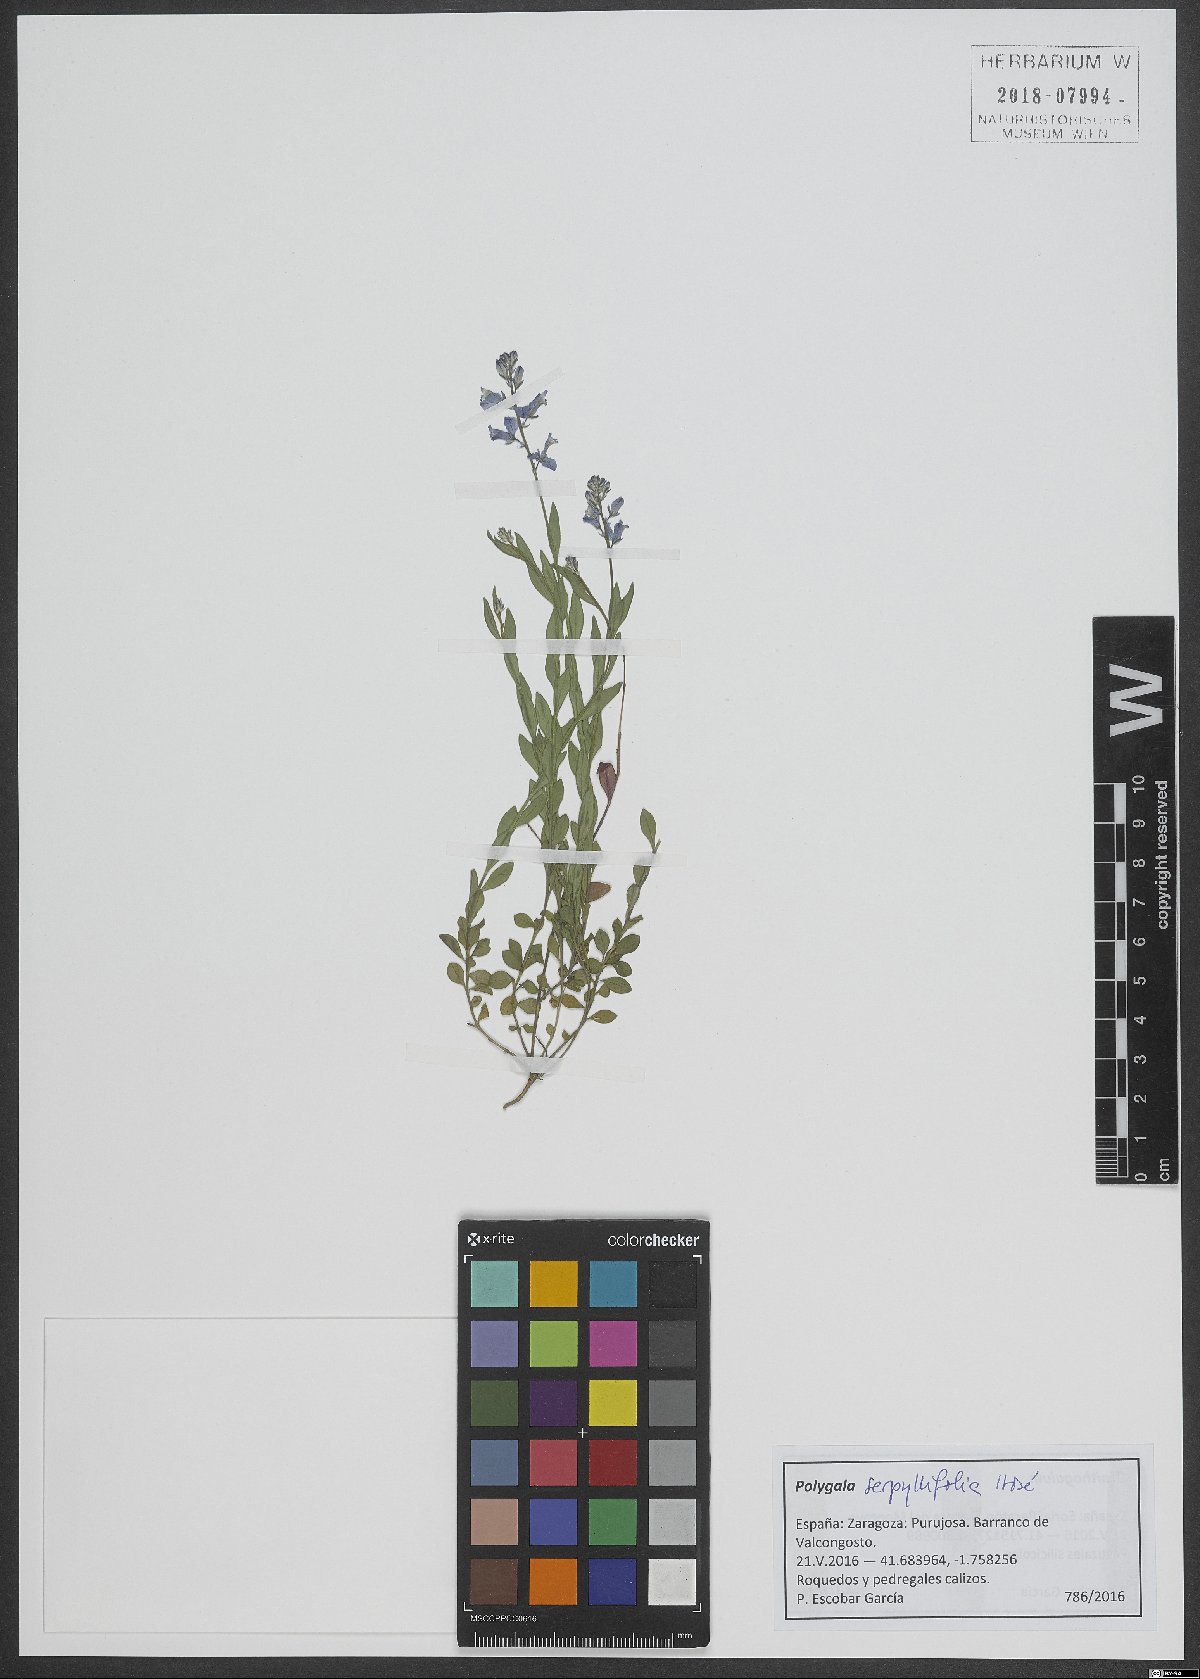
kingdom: Plantae
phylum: Tracheophyta
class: Magnoliopsida
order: Fabales
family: Polygalaceae
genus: Polygala
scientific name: Polygala serpyllifolia
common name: Heath milkwort
